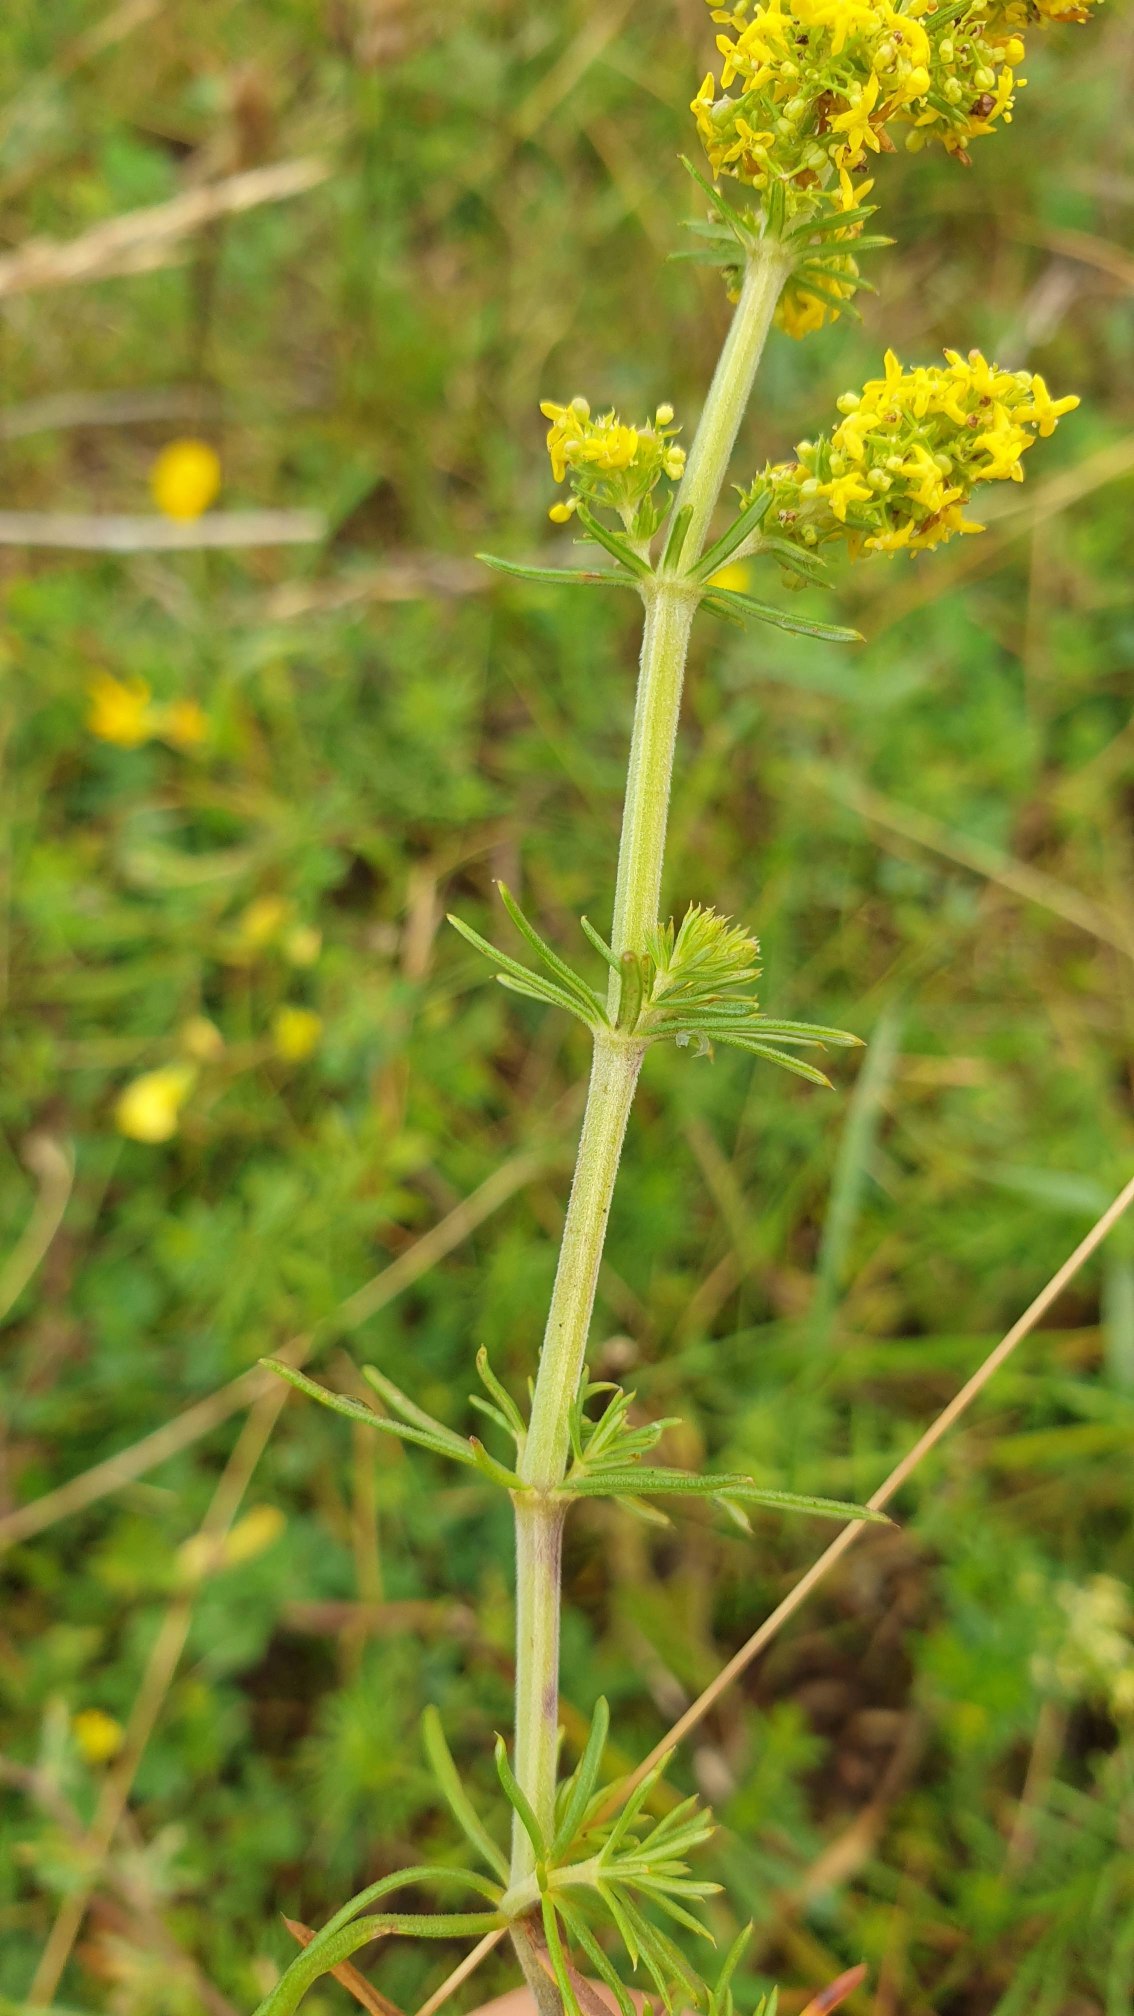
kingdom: Plantae
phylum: Tracheophyta
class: Magnoliopsida
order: Gentianales
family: Rubiaceae
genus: Galium
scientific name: Galium verum
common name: Gul snerre
